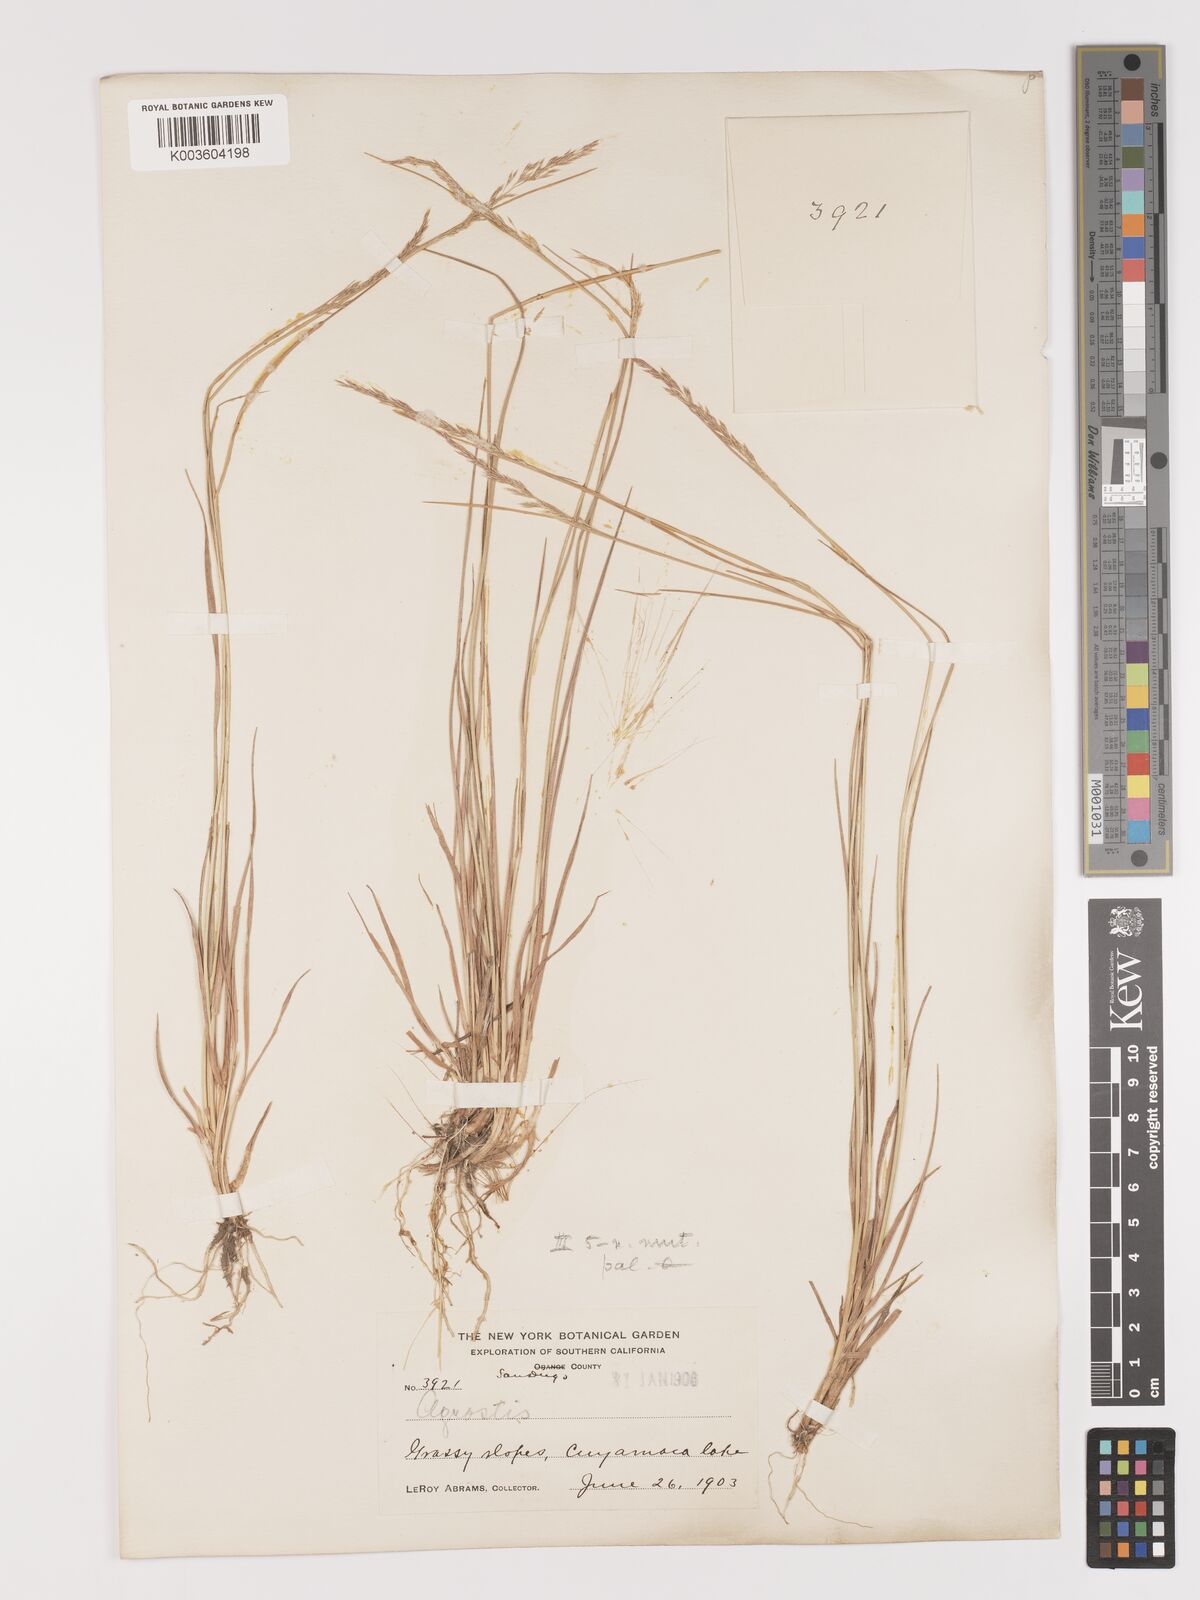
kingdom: Plantae
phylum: Tracheophyta
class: Liliopsida
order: Poales
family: Poaceae
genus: Agrostis
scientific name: Agrostis pallens
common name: Dune bent
